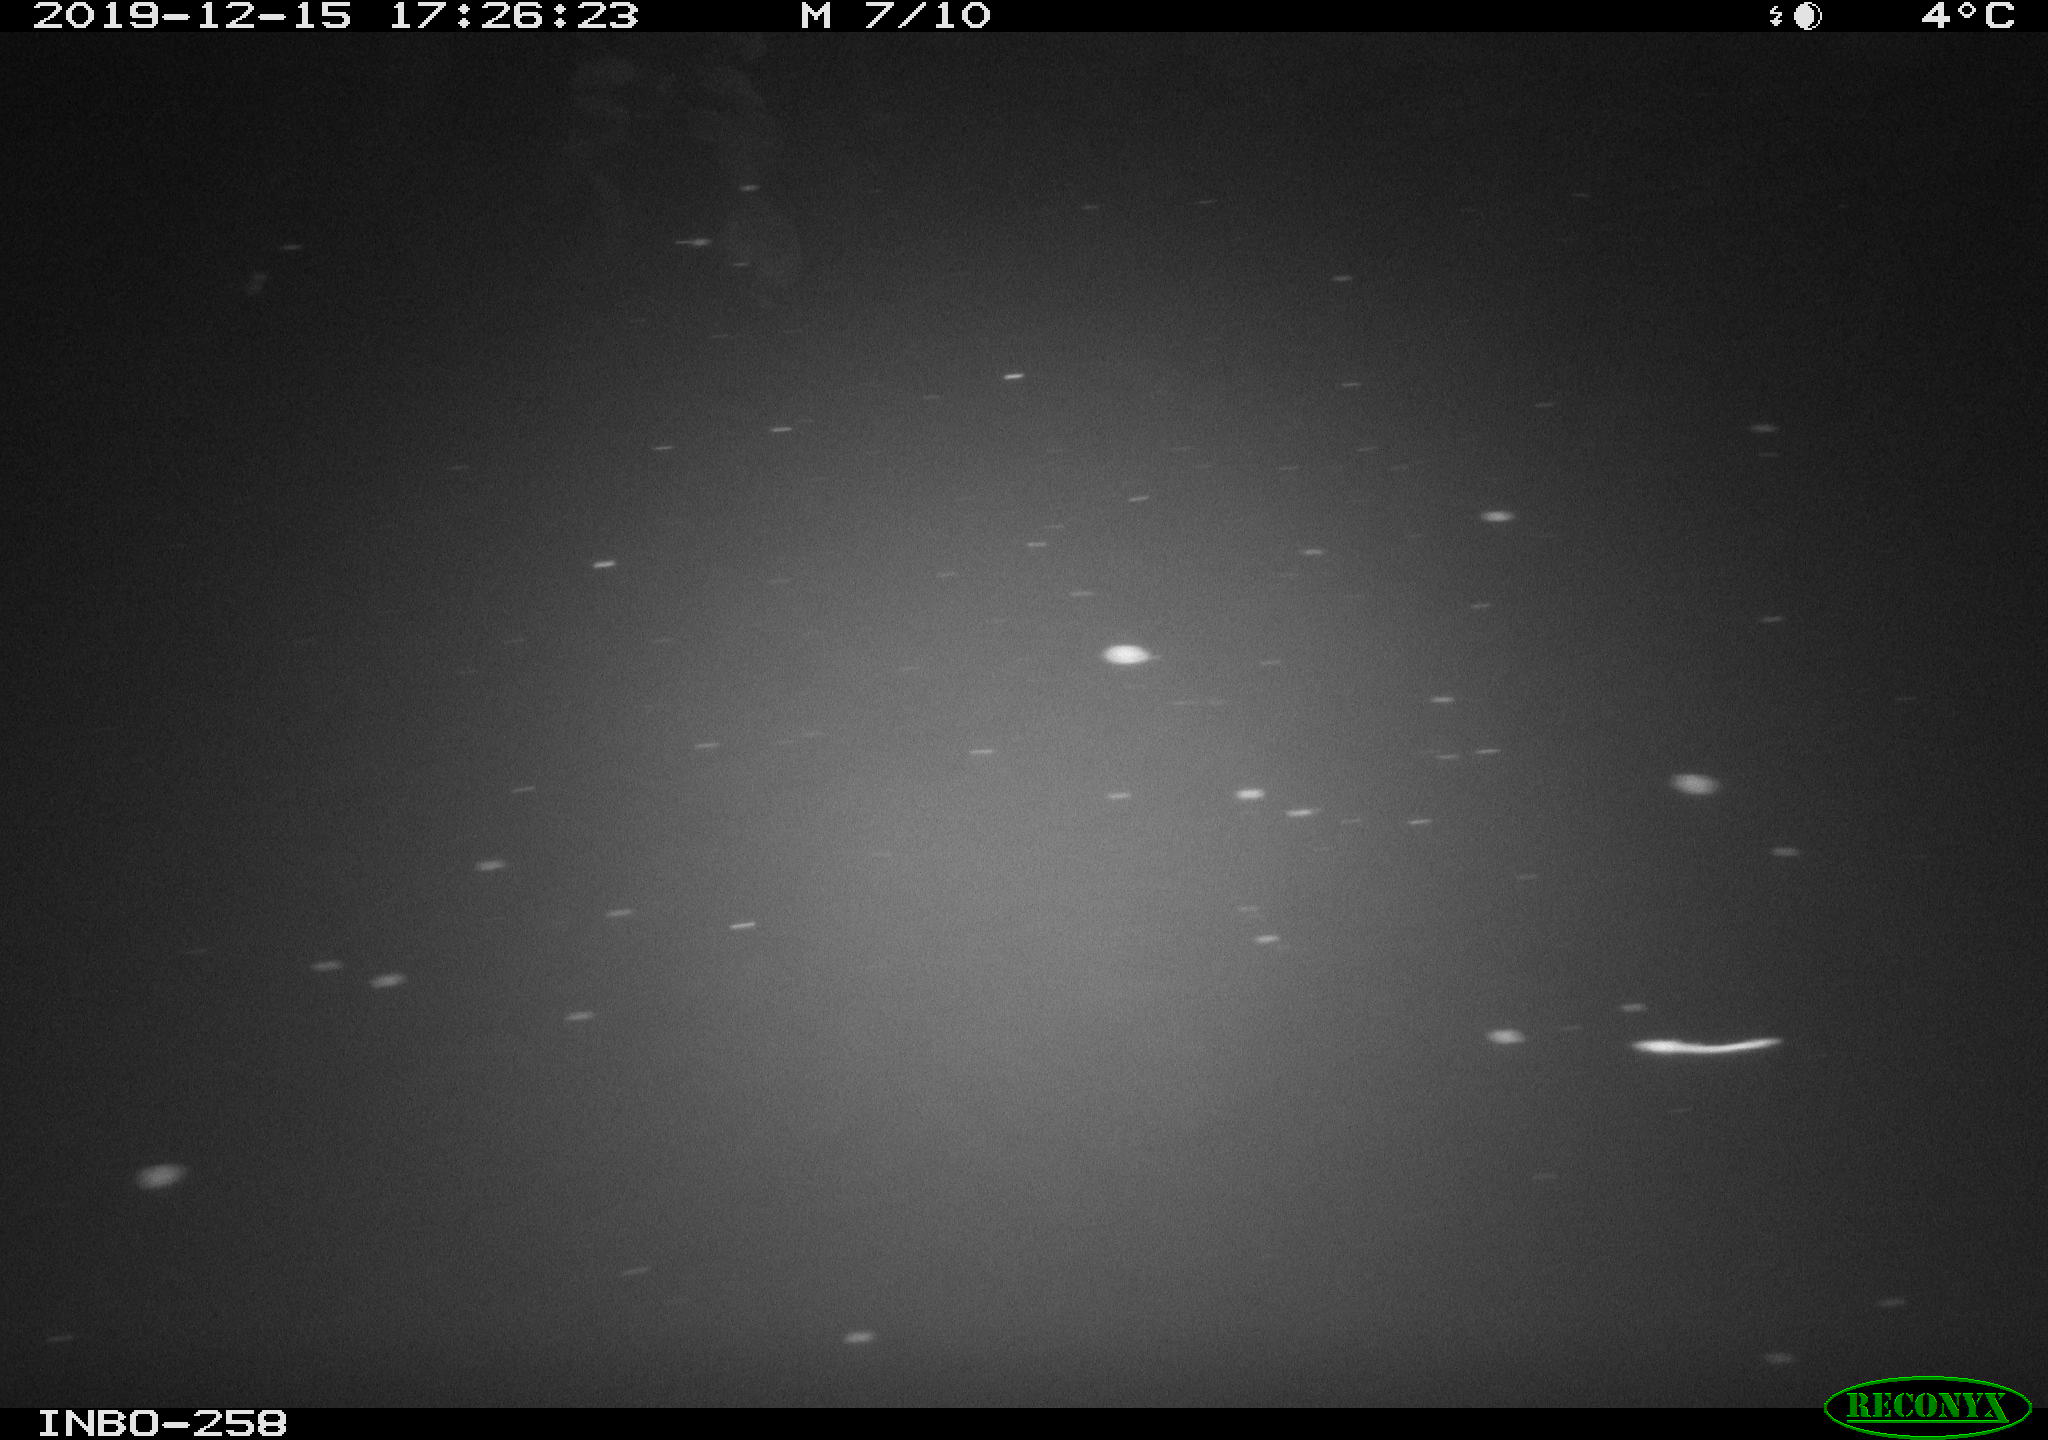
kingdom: Animalia
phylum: Chordata
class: Aves
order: Anseriformes
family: Anatidae
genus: Anas
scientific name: Anas platyrhynchos
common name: Mallard
